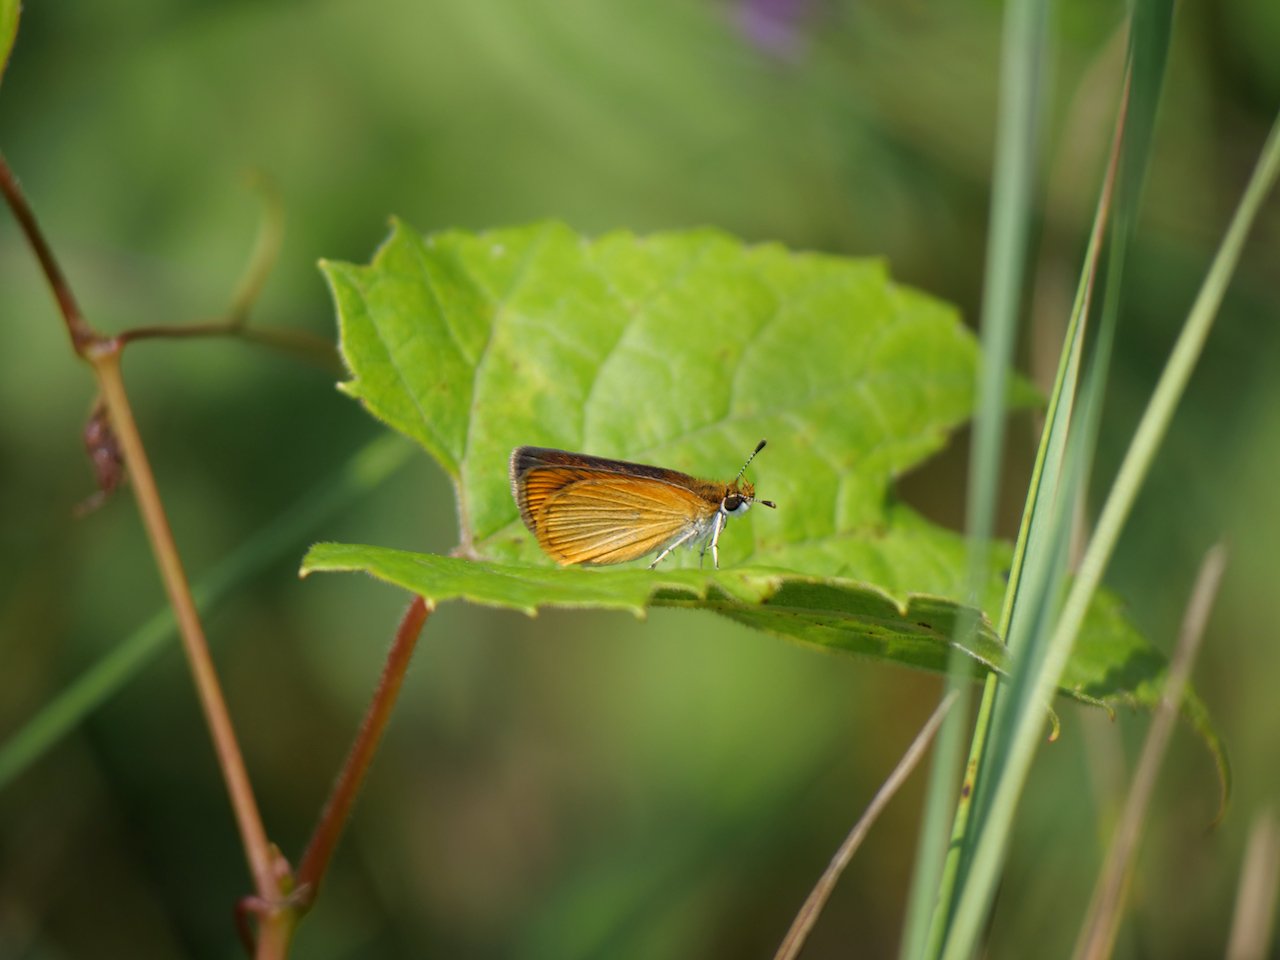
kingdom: Animalia
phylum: Arthropoda
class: Insecta
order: Lepidoptera
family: Hesperiidae
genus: Ancyloxypha
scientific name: Ancyloxypha numitor
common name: Least Skipper
